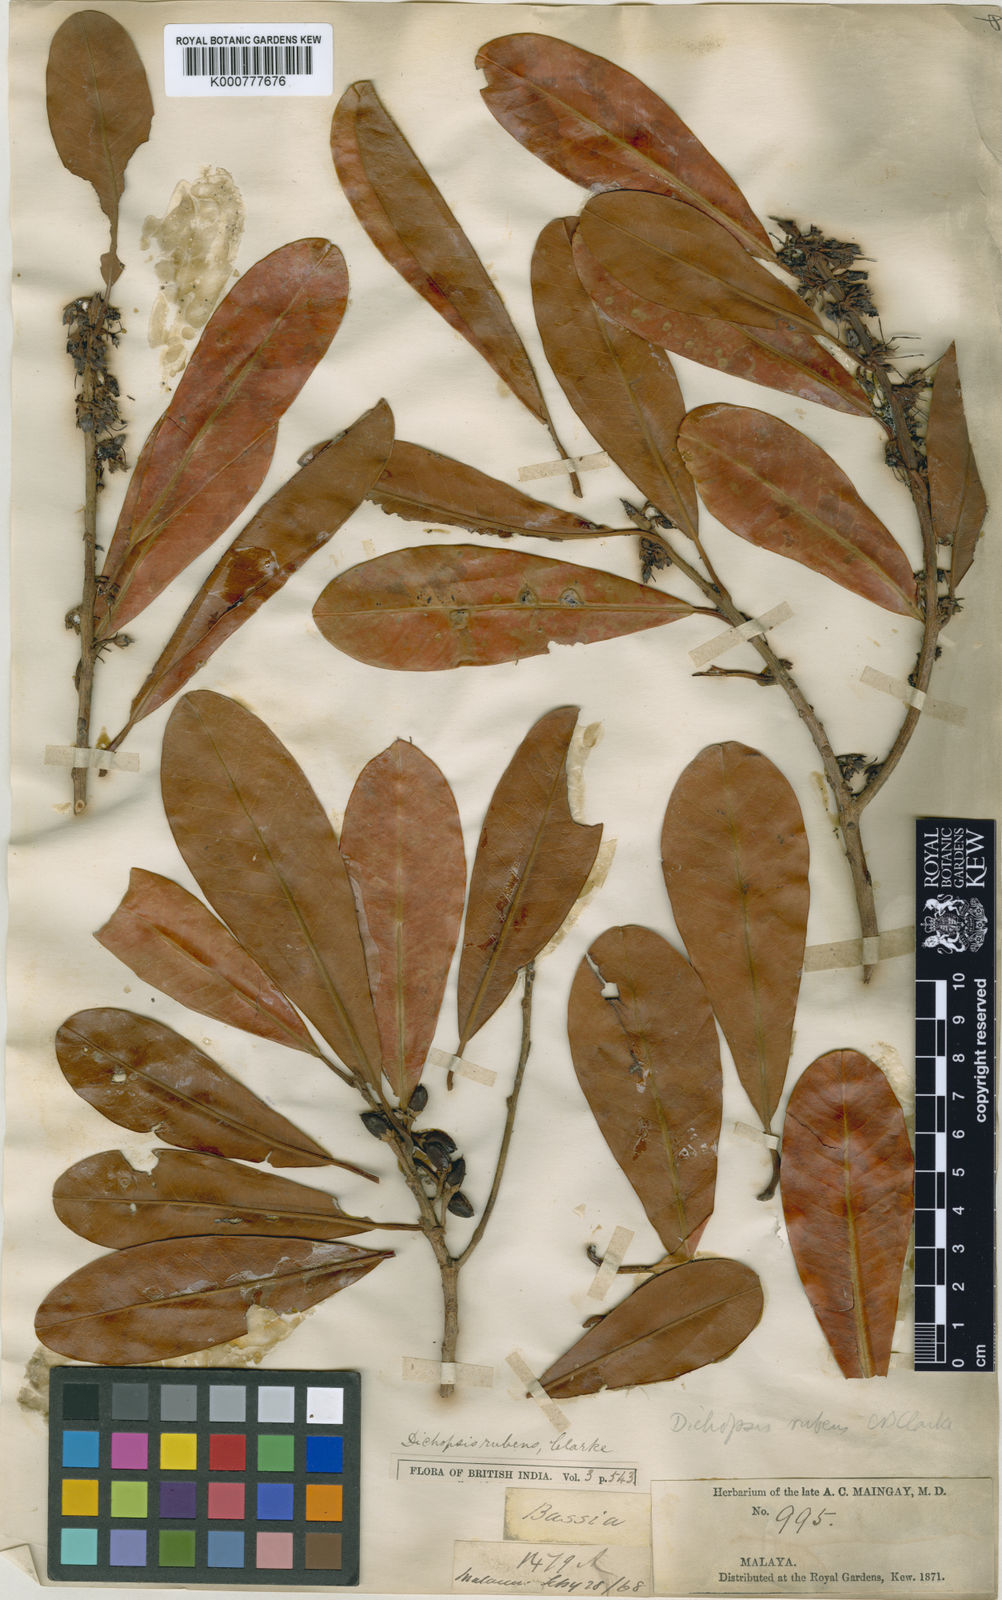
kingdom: Plantae
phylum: Tracheophyta
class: Magnoliopsida
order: Ericales
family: Sapotaceae
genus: Palaquium
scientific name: Palaquium xanthochymum
